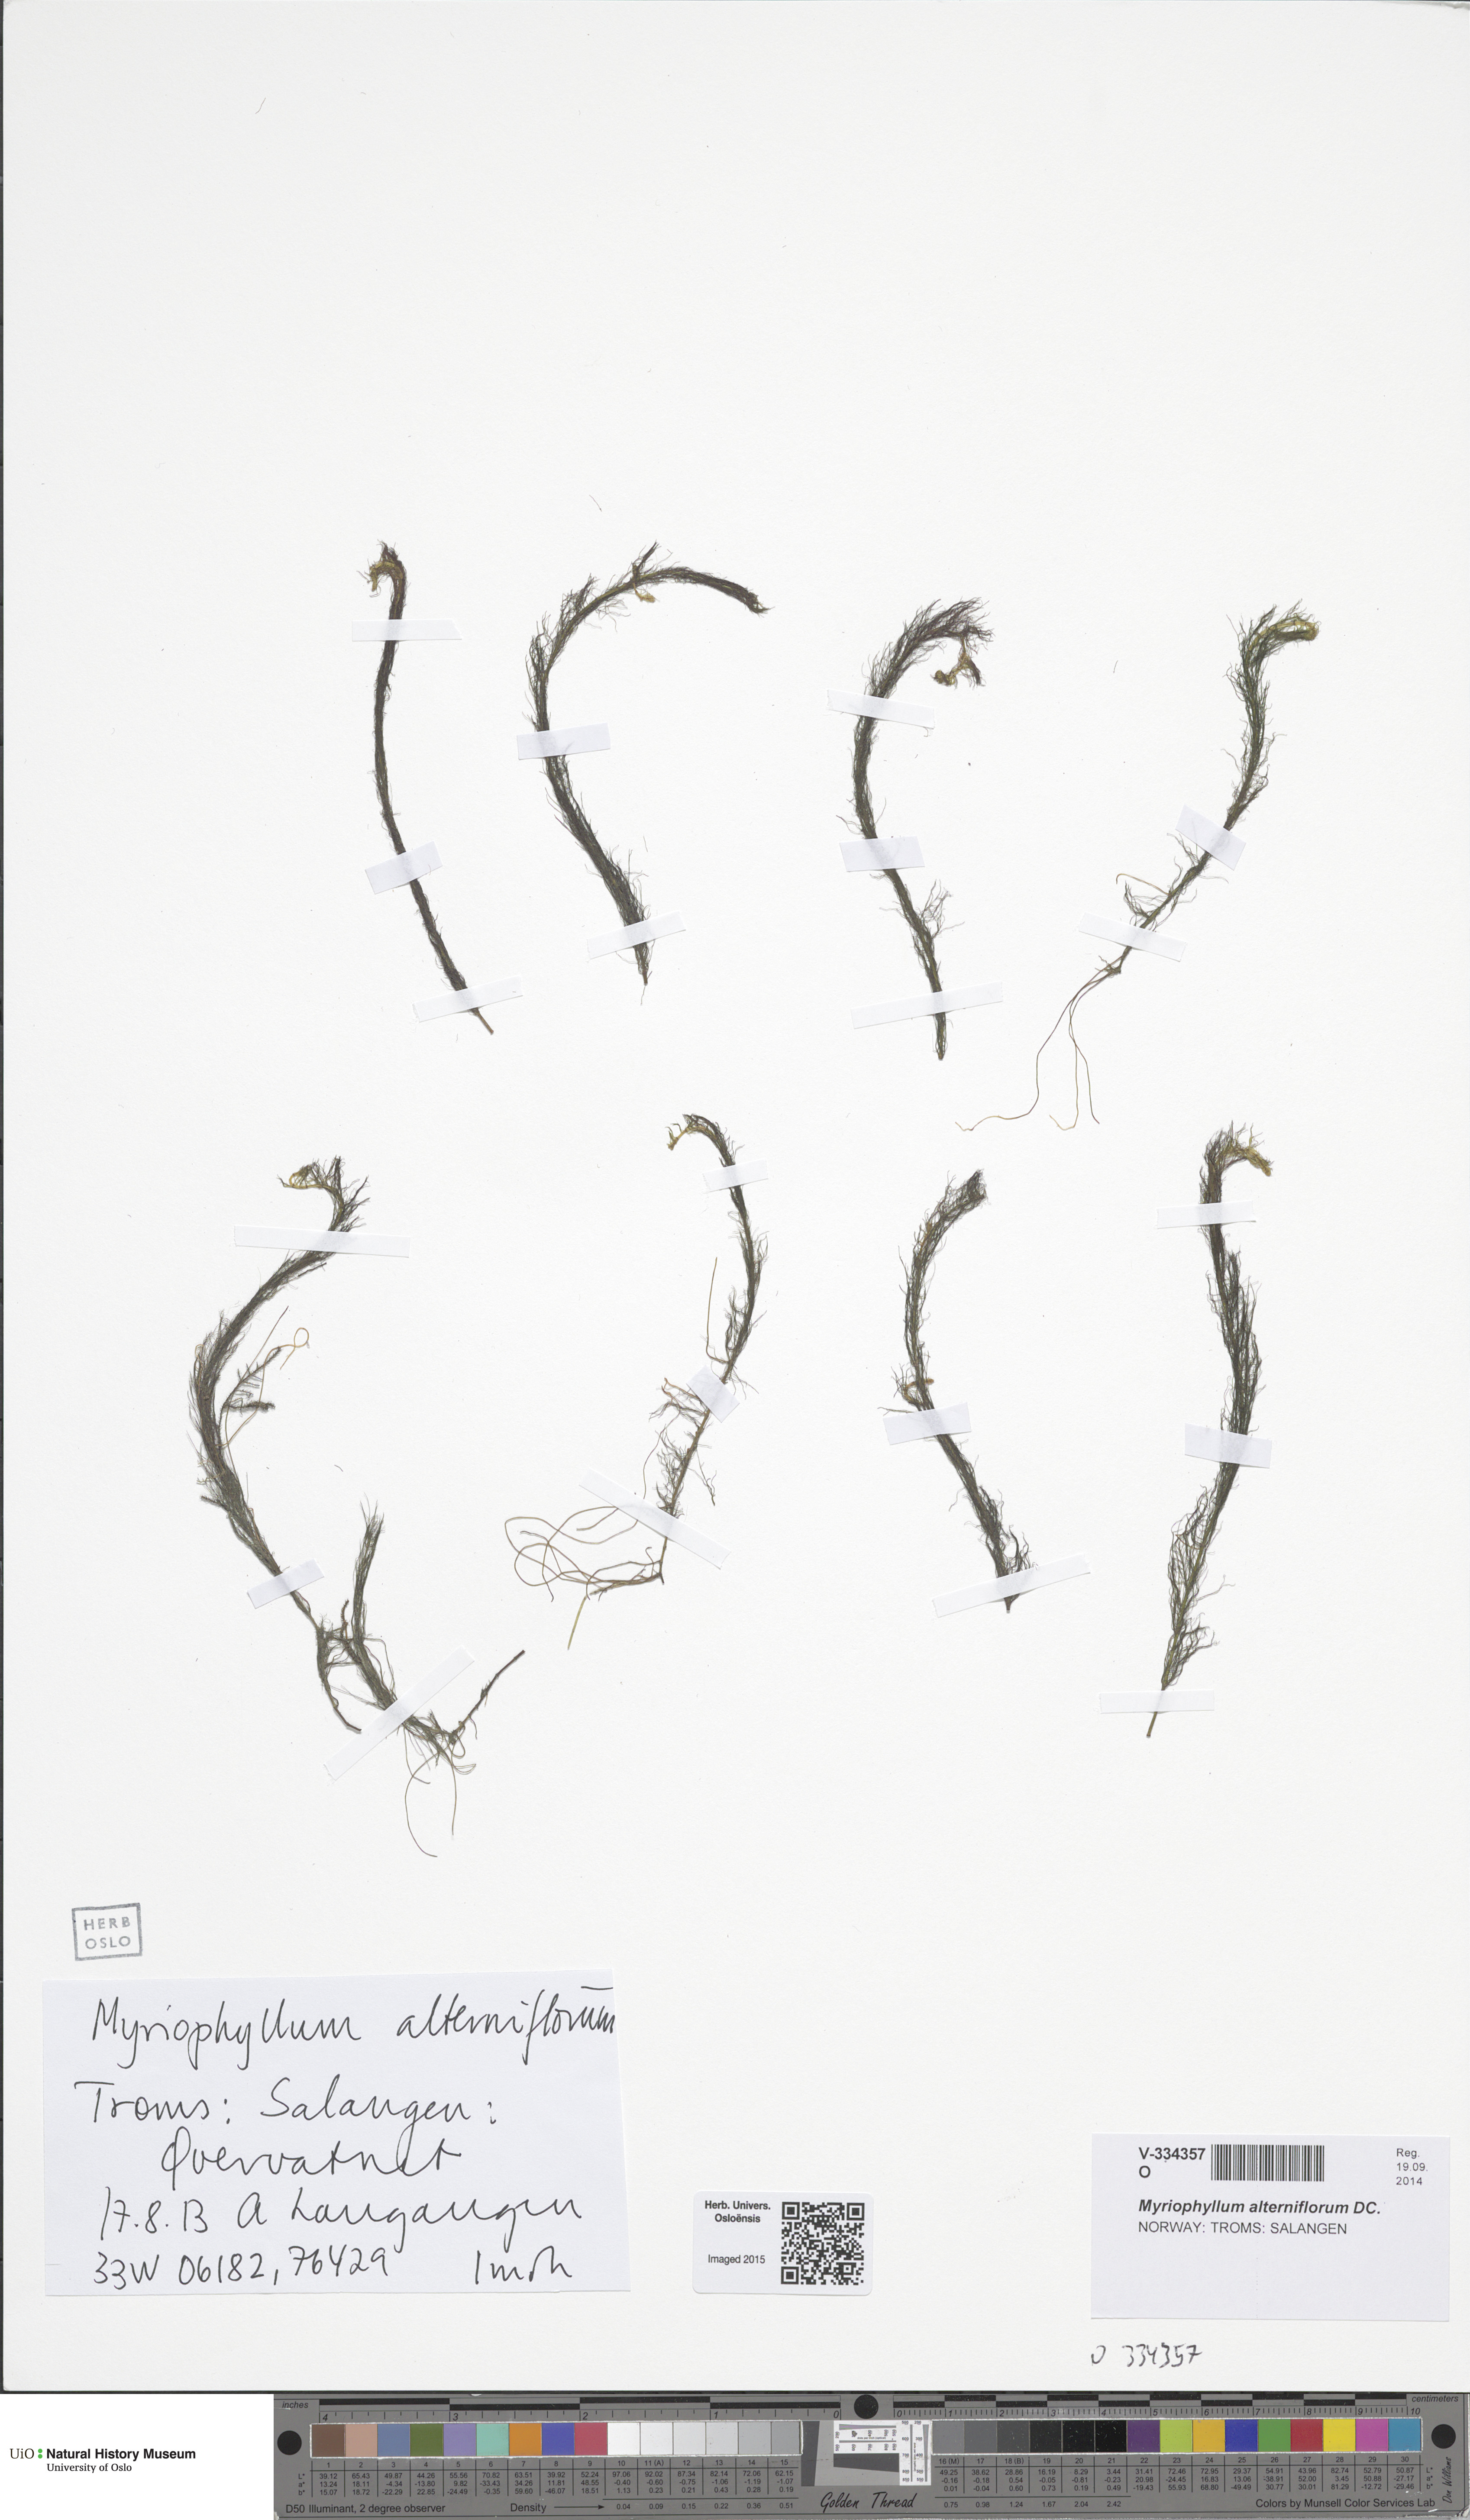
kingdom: Plantae
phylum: Tracheophyta
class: Magnoliopsida
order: Saxifragales
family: Haloragaceae
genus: Myriophyllum
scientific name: Myriophyllum alterniflorum
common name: Alternate water-milfoil
